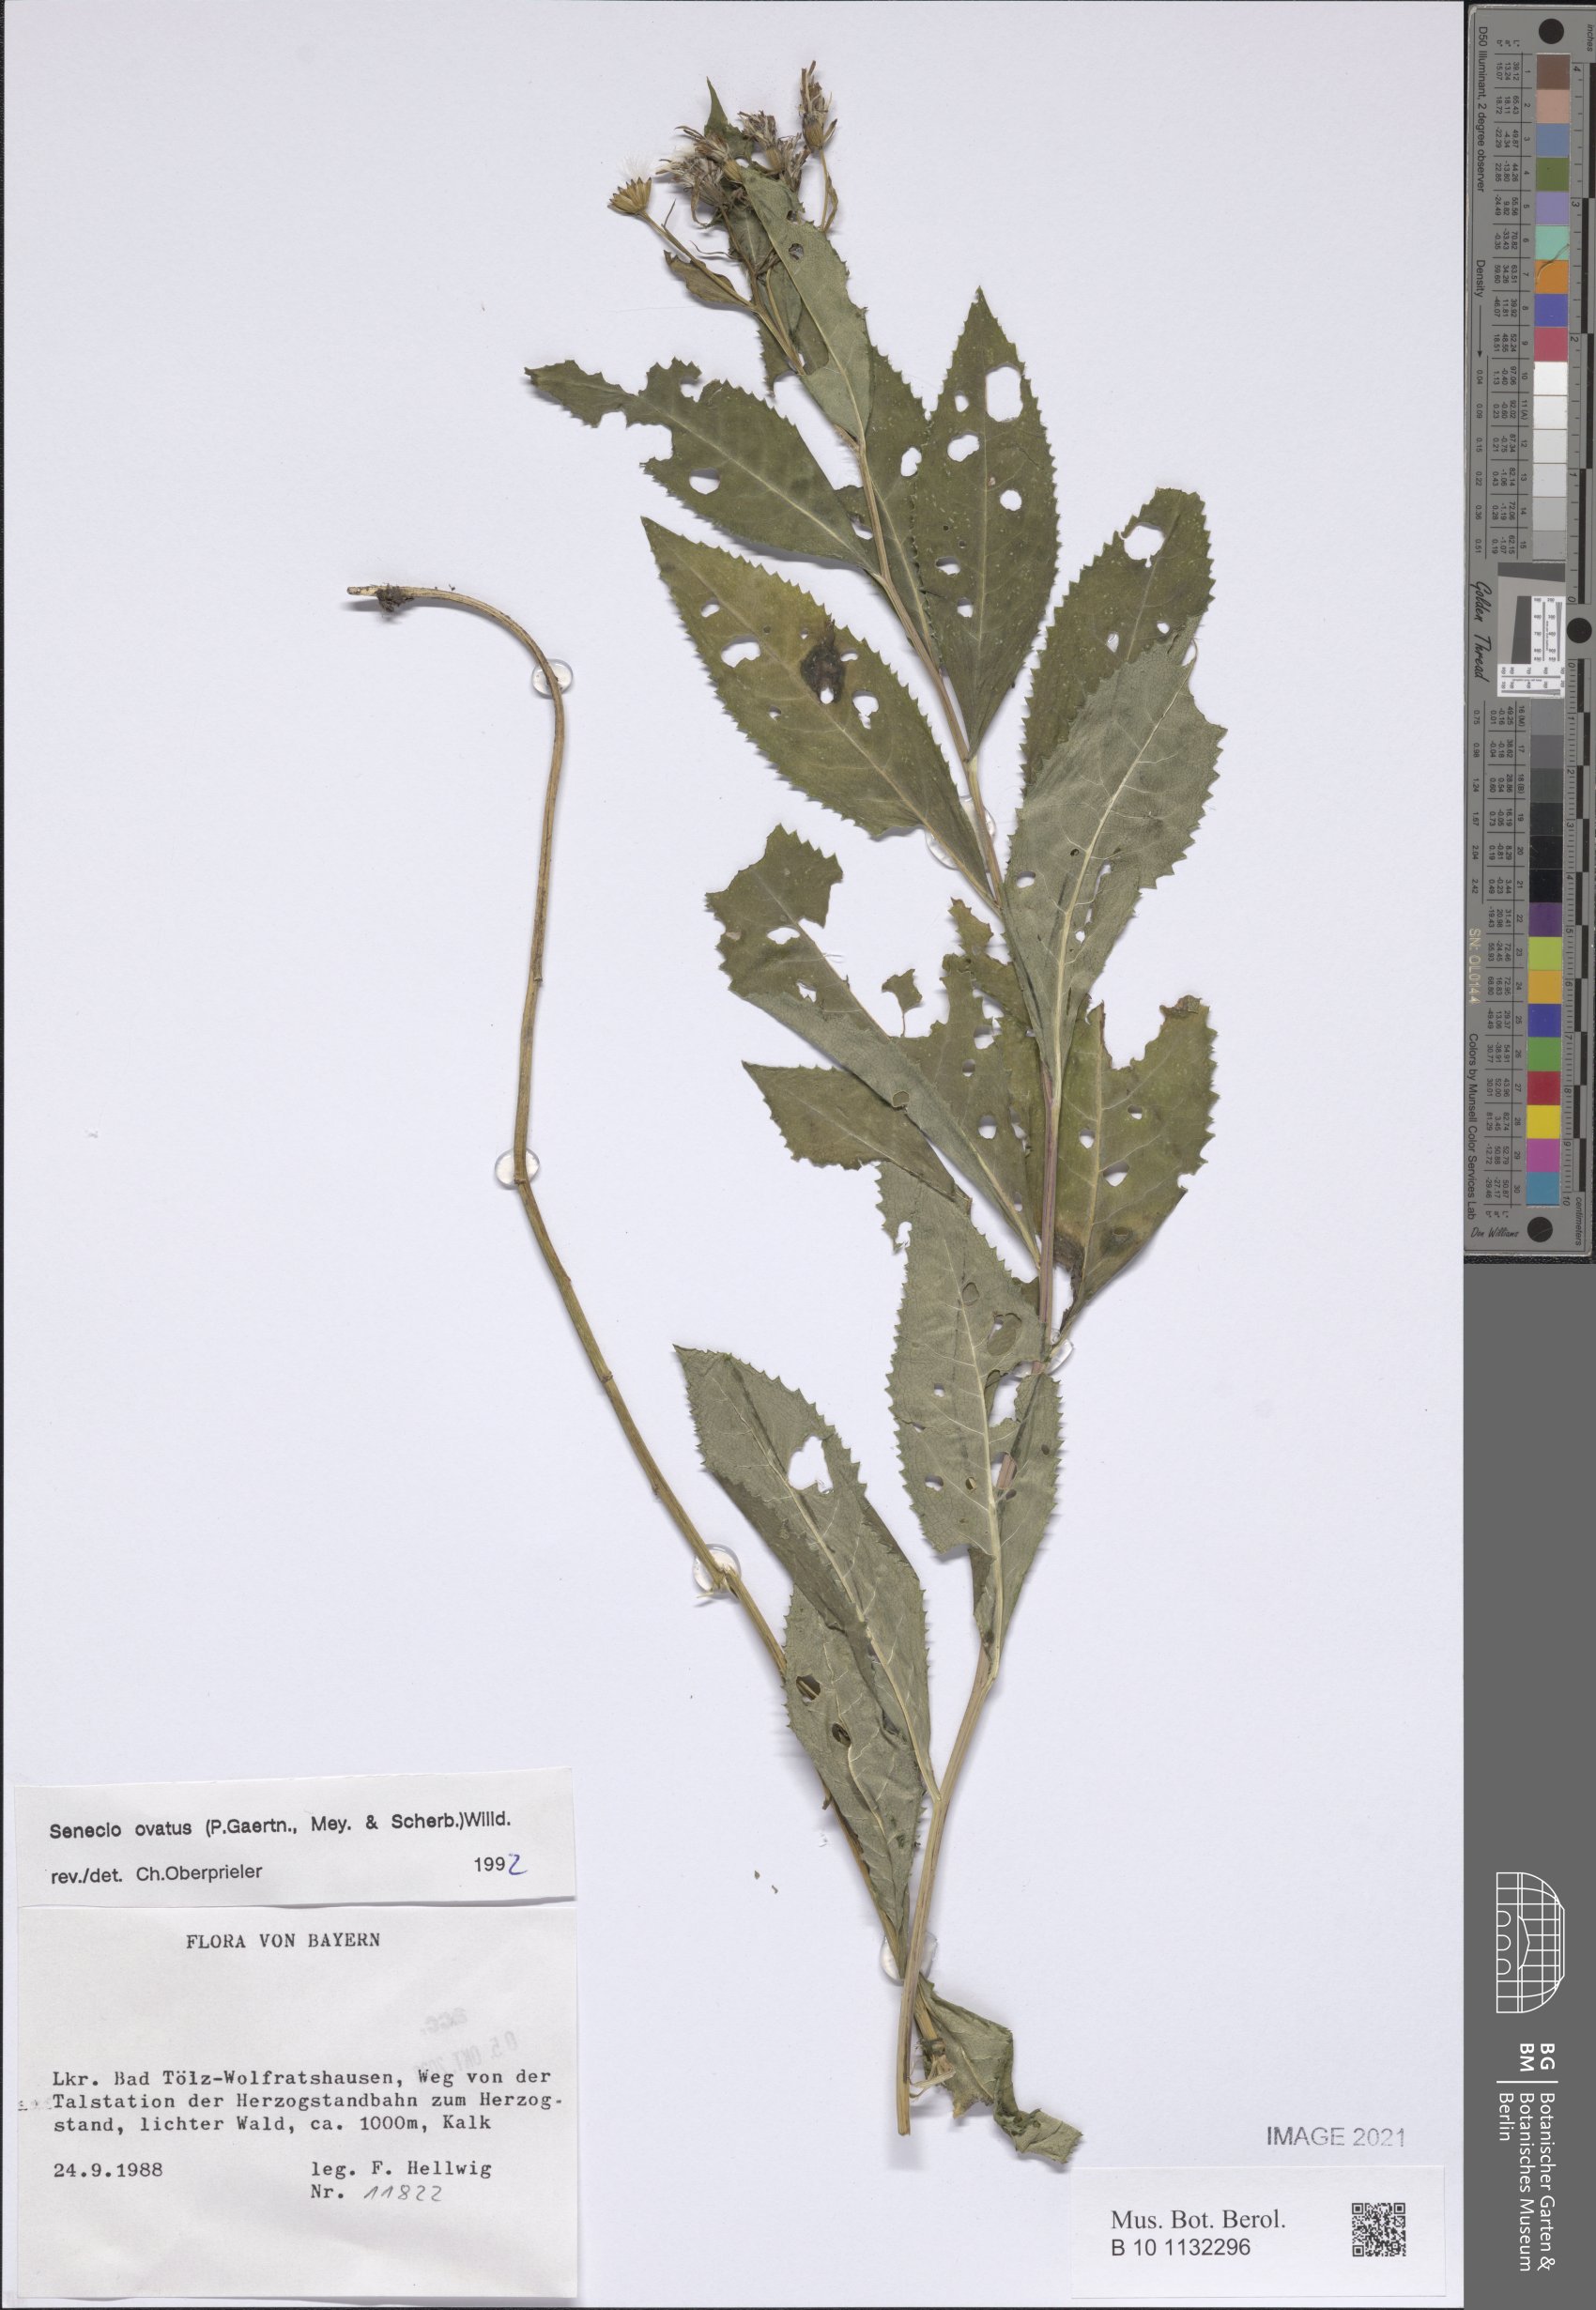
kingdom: Plantae
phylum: Tracheophyta
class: Magnoliopsida
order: Asterales
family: Asteraceae
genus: Senecio
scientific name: Senecio ovatus
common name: Wood ragwort
